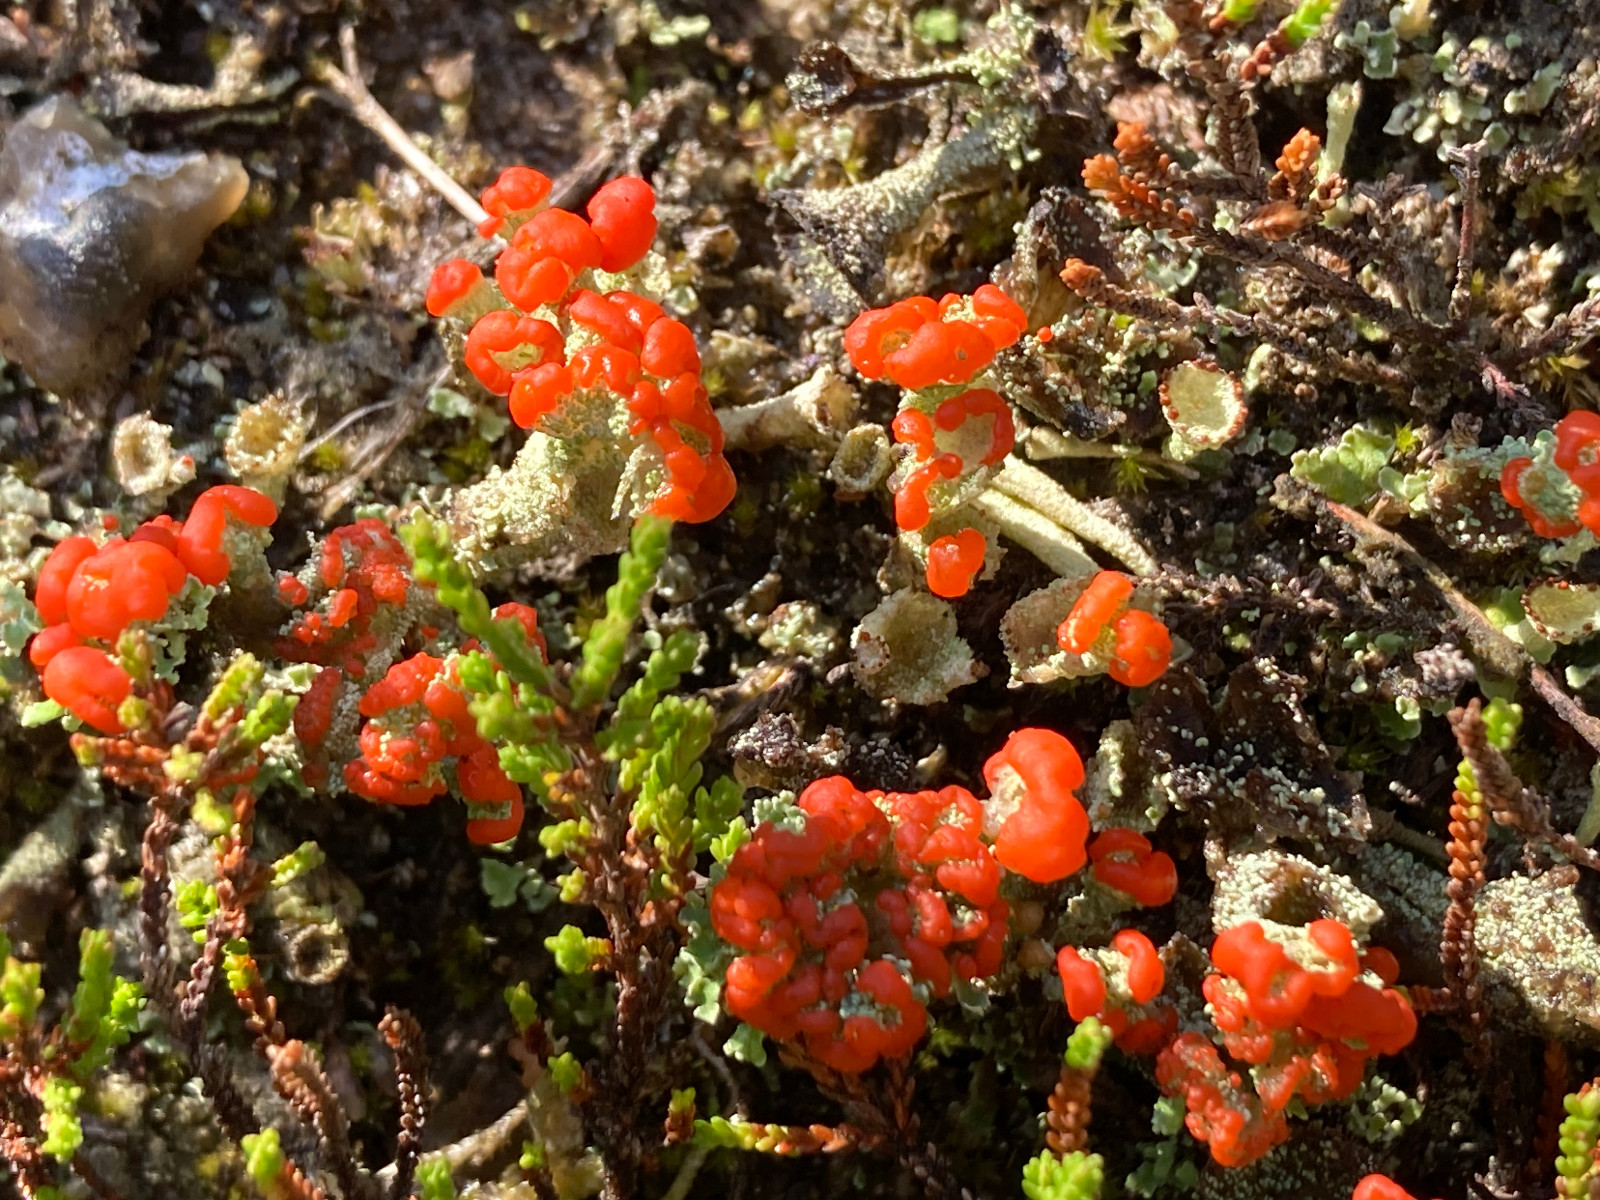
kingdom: Fungi
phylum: Ascomycota
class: Lecanoromycetes
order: Lecanorales
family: Cladoniaceae
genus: Cladonia
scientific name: Cladonia diversa
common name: rød bægerlav
